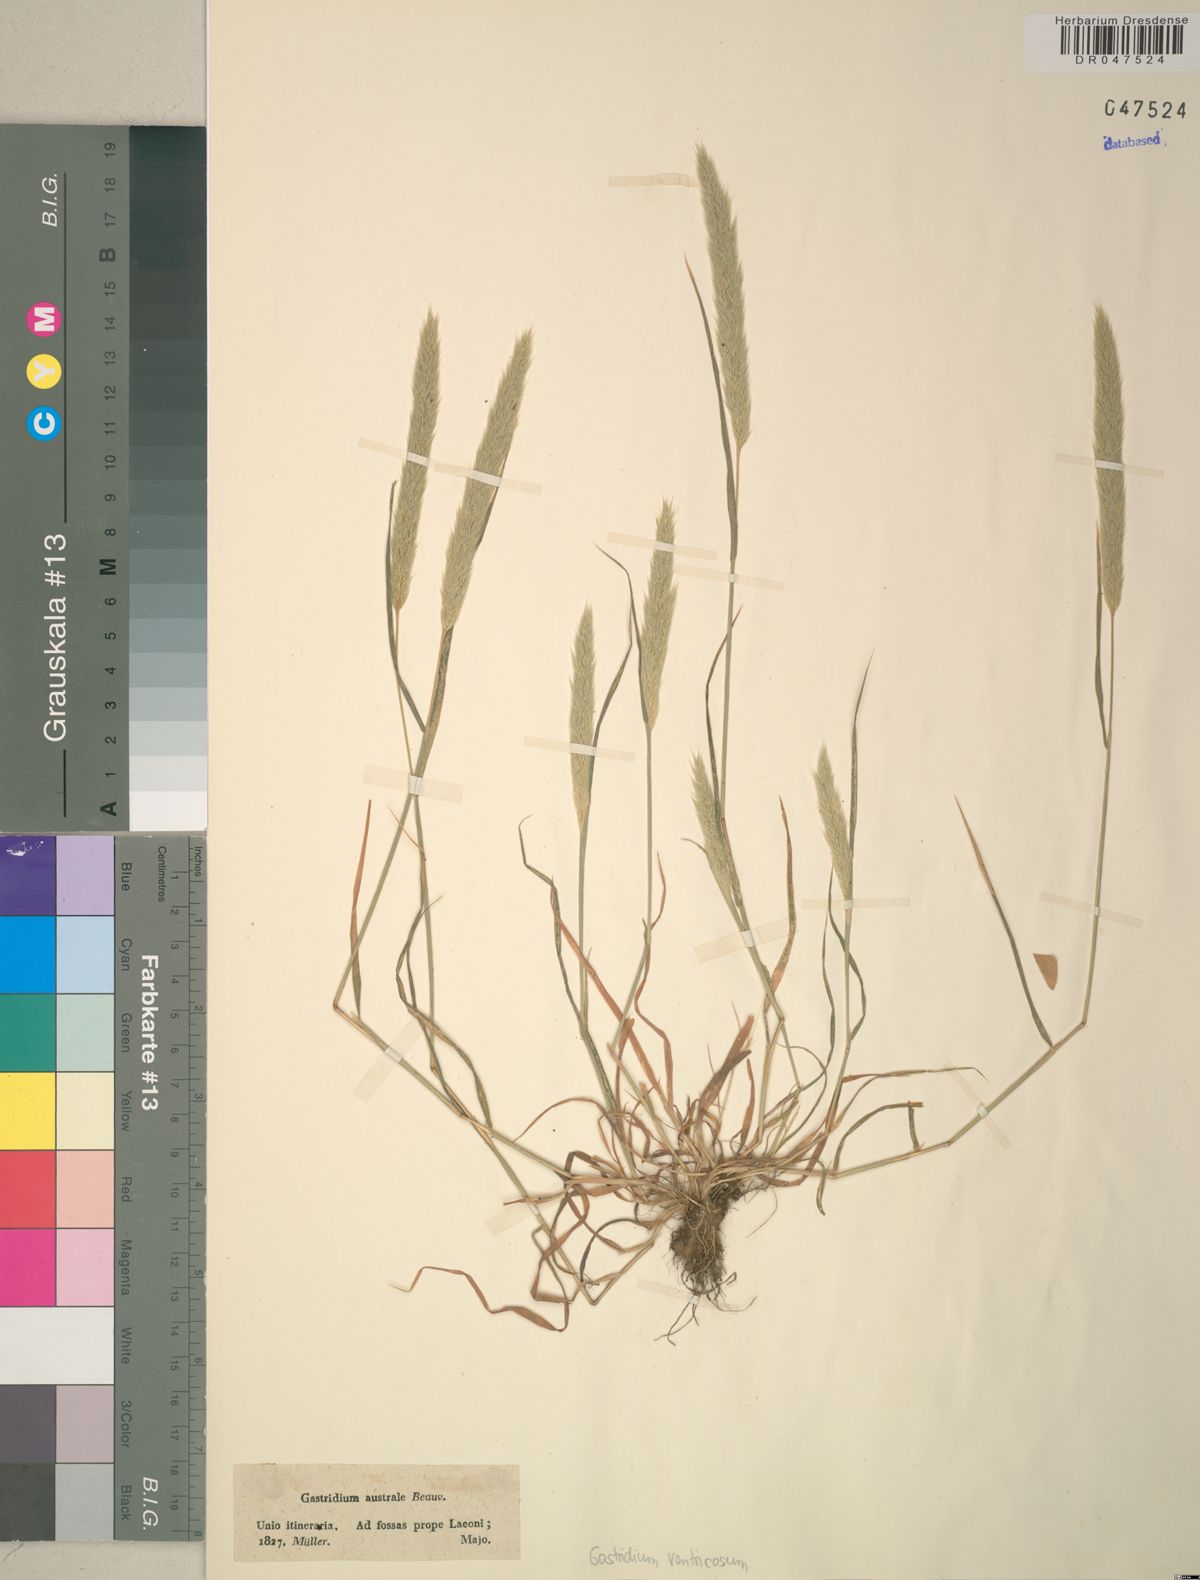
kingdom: Plantae
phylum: Tracheophyta
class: Liliopsida
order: Poales
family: Poaceae
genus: Gastridium
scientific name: Gastridium ventricosum
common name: Nit-grass
